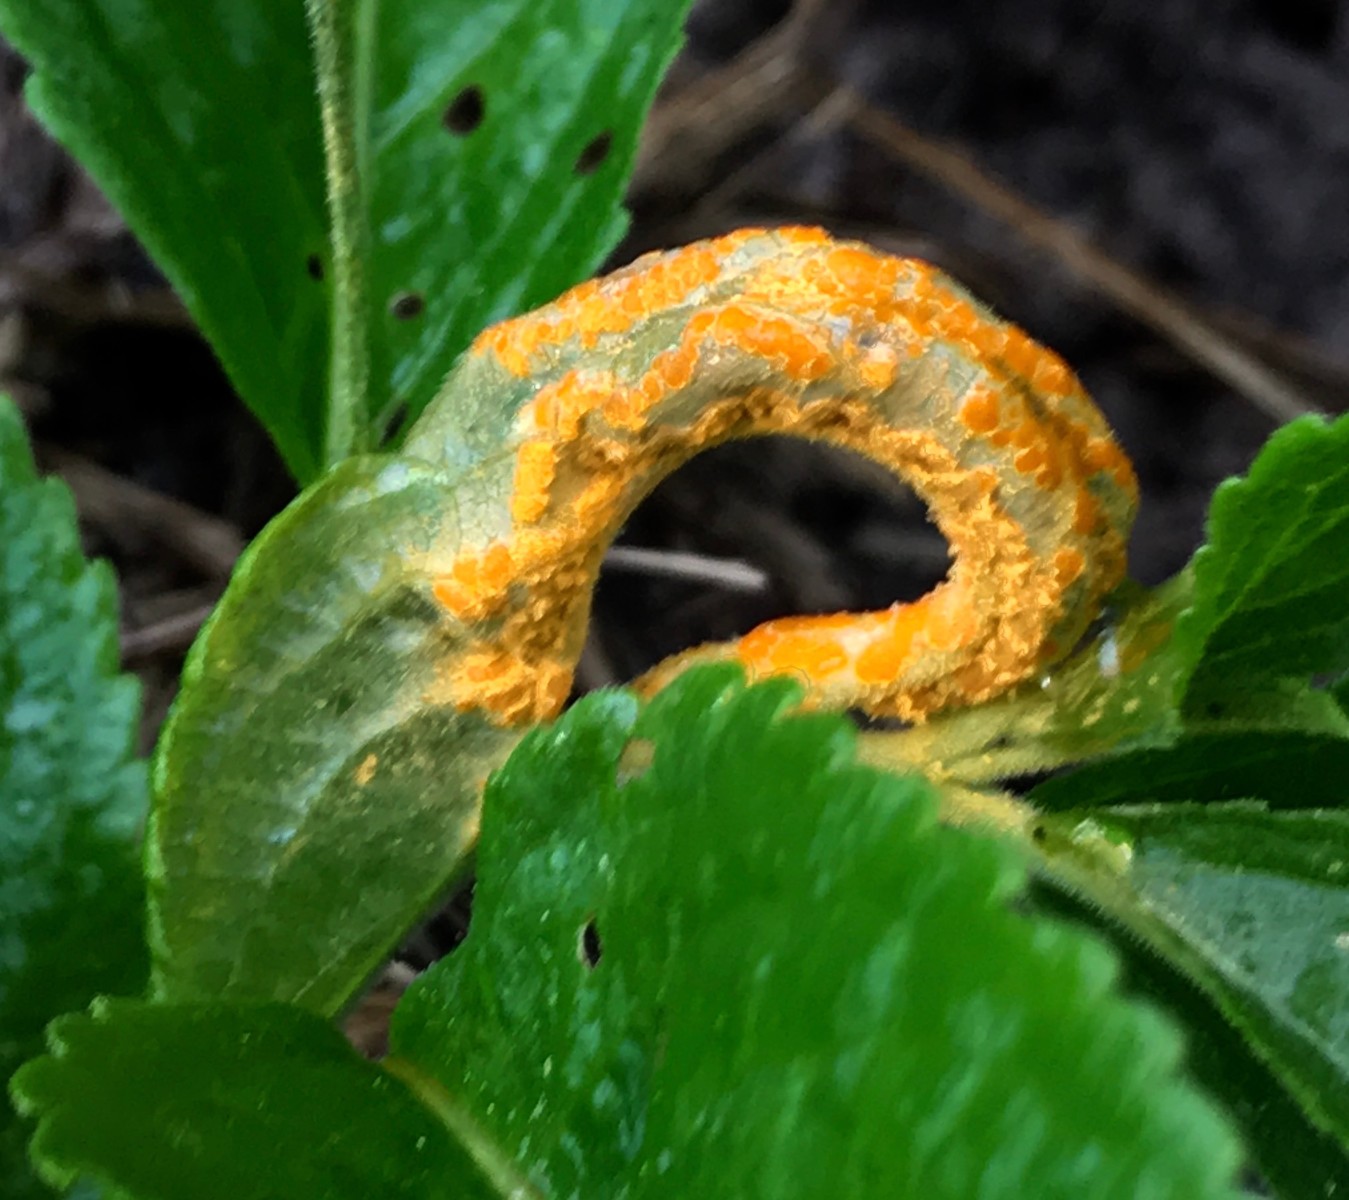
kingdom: Fungi
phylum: Basidiomycota
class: Pucciniomycetes
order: Pucciniales
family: Melampsoraceae
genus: Melampsora
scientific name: Melampsora populnea
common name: poppel-skorperust
